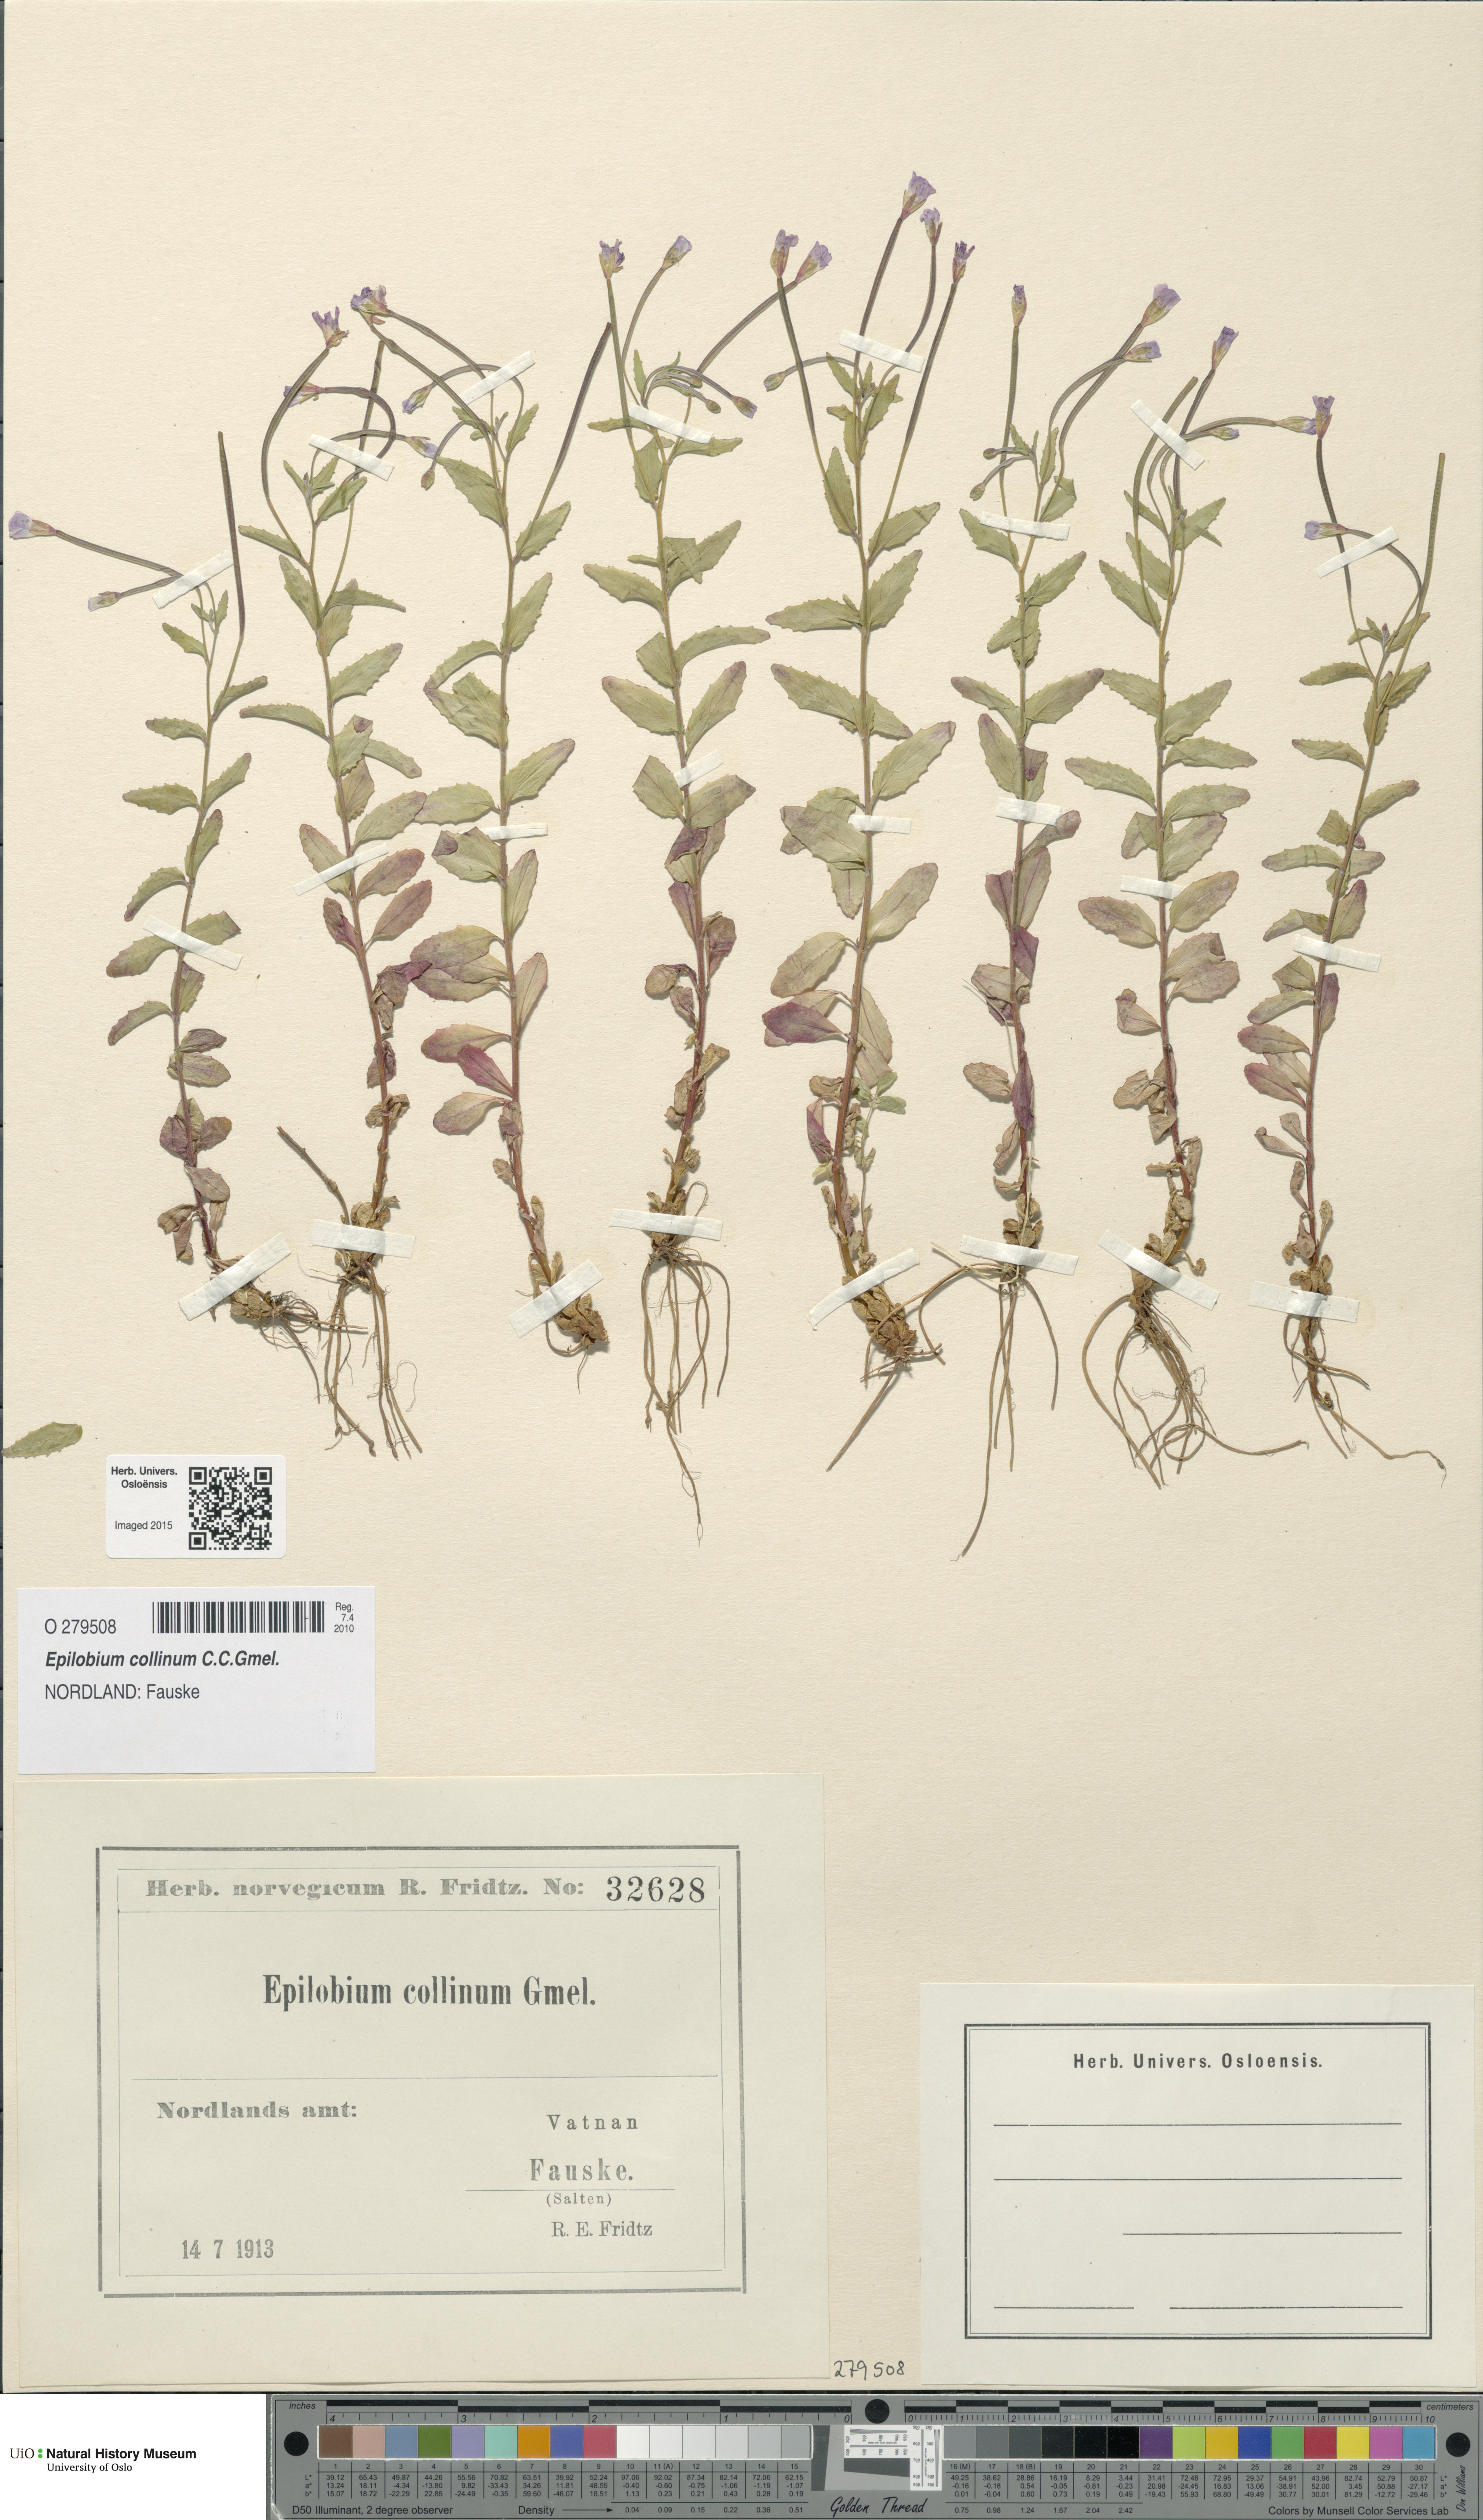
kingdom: Plantae
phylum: Tracheophyta
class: Magnoliopsida
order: Myrtales
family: Onagraceae
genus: Epilobium
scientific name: Epilobium collinum
